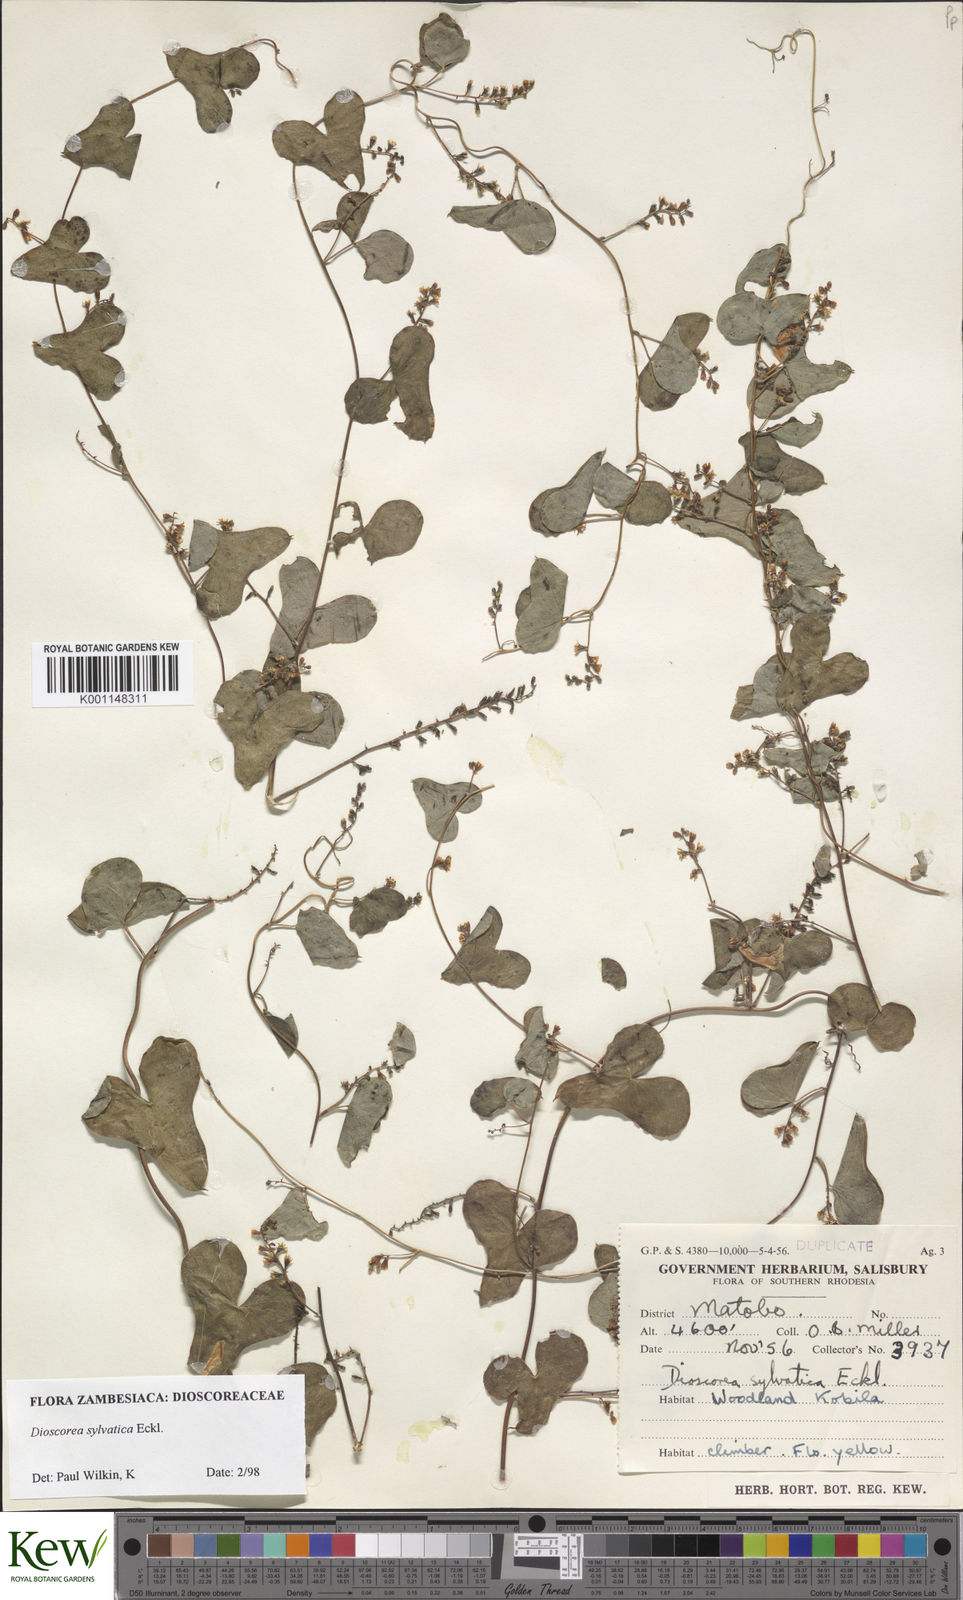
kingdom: Plantae
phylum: Tracheophyta
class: Liliopsida
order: Dioscoreales
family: Dioscoreaceae
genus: Dioscorea
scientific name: Dioscorea sylvatica
